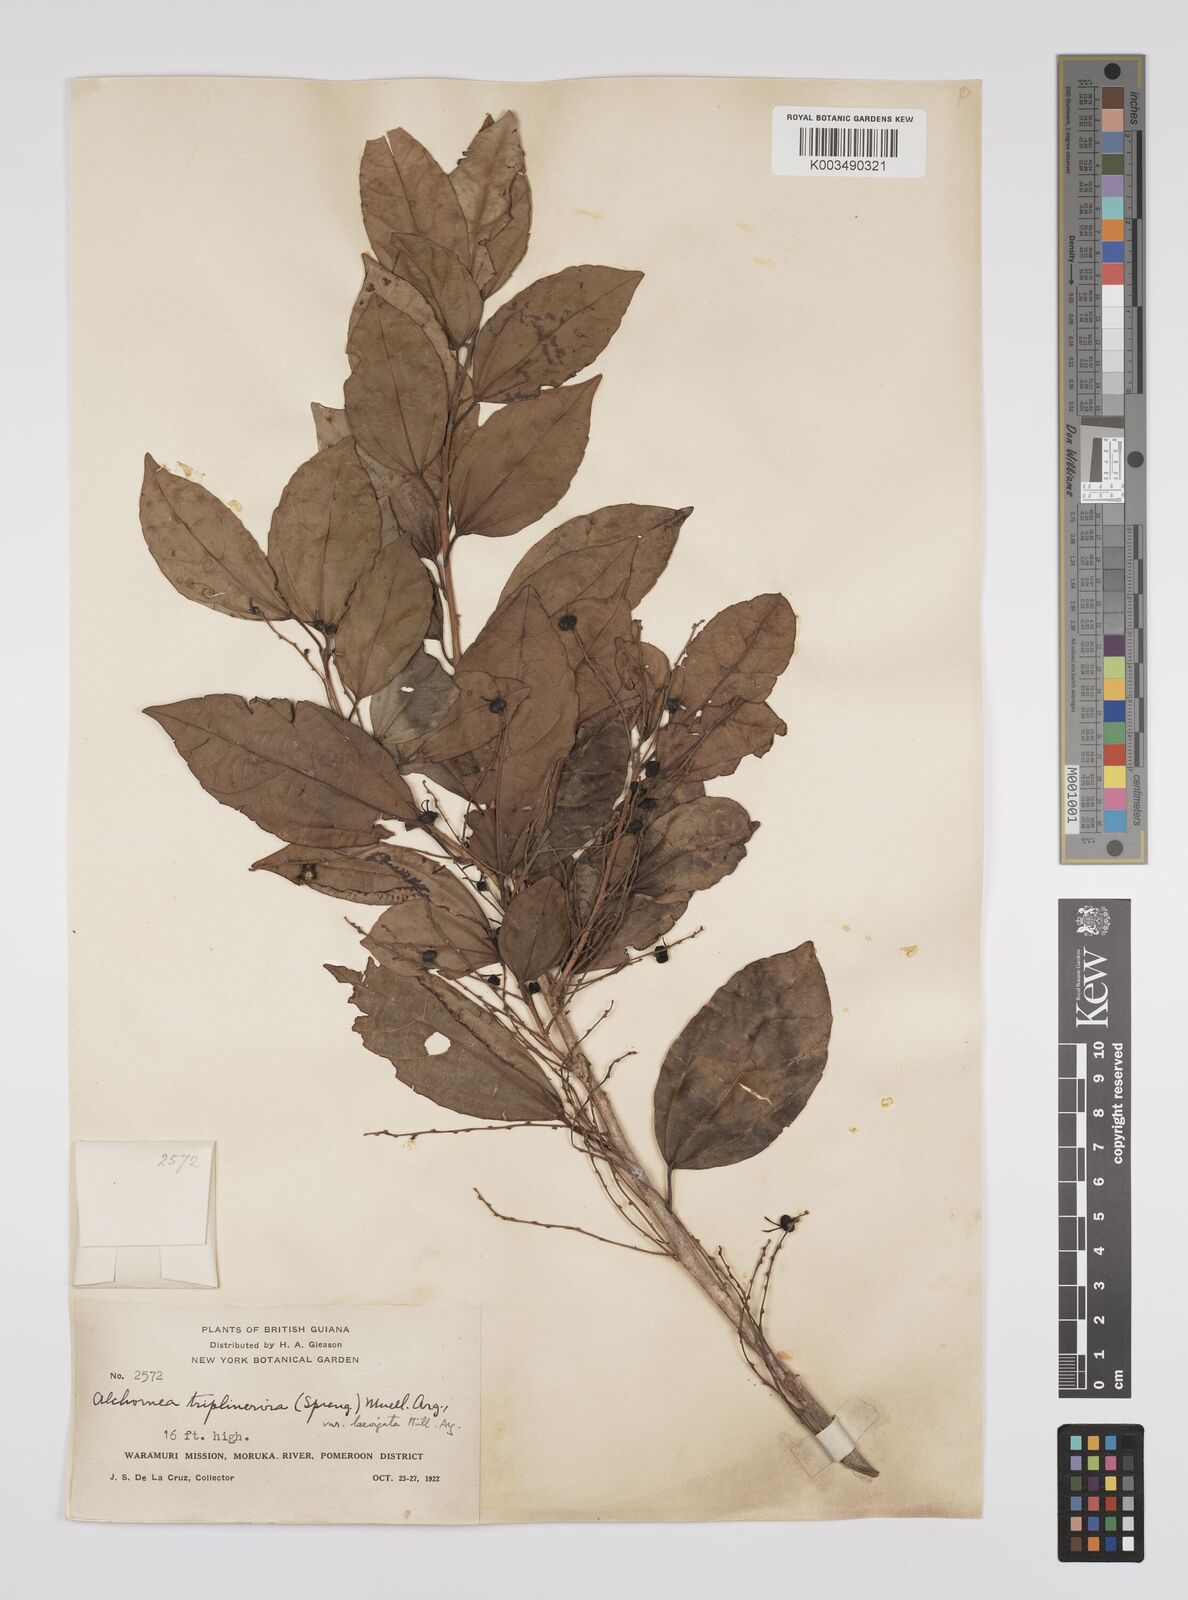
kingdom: Plantae
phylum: Tracheophyta
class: Magnoliopsida
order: Malpighiales
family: Euphorbiaceae
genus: Alchornea
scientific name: Alchornea triplinervia
